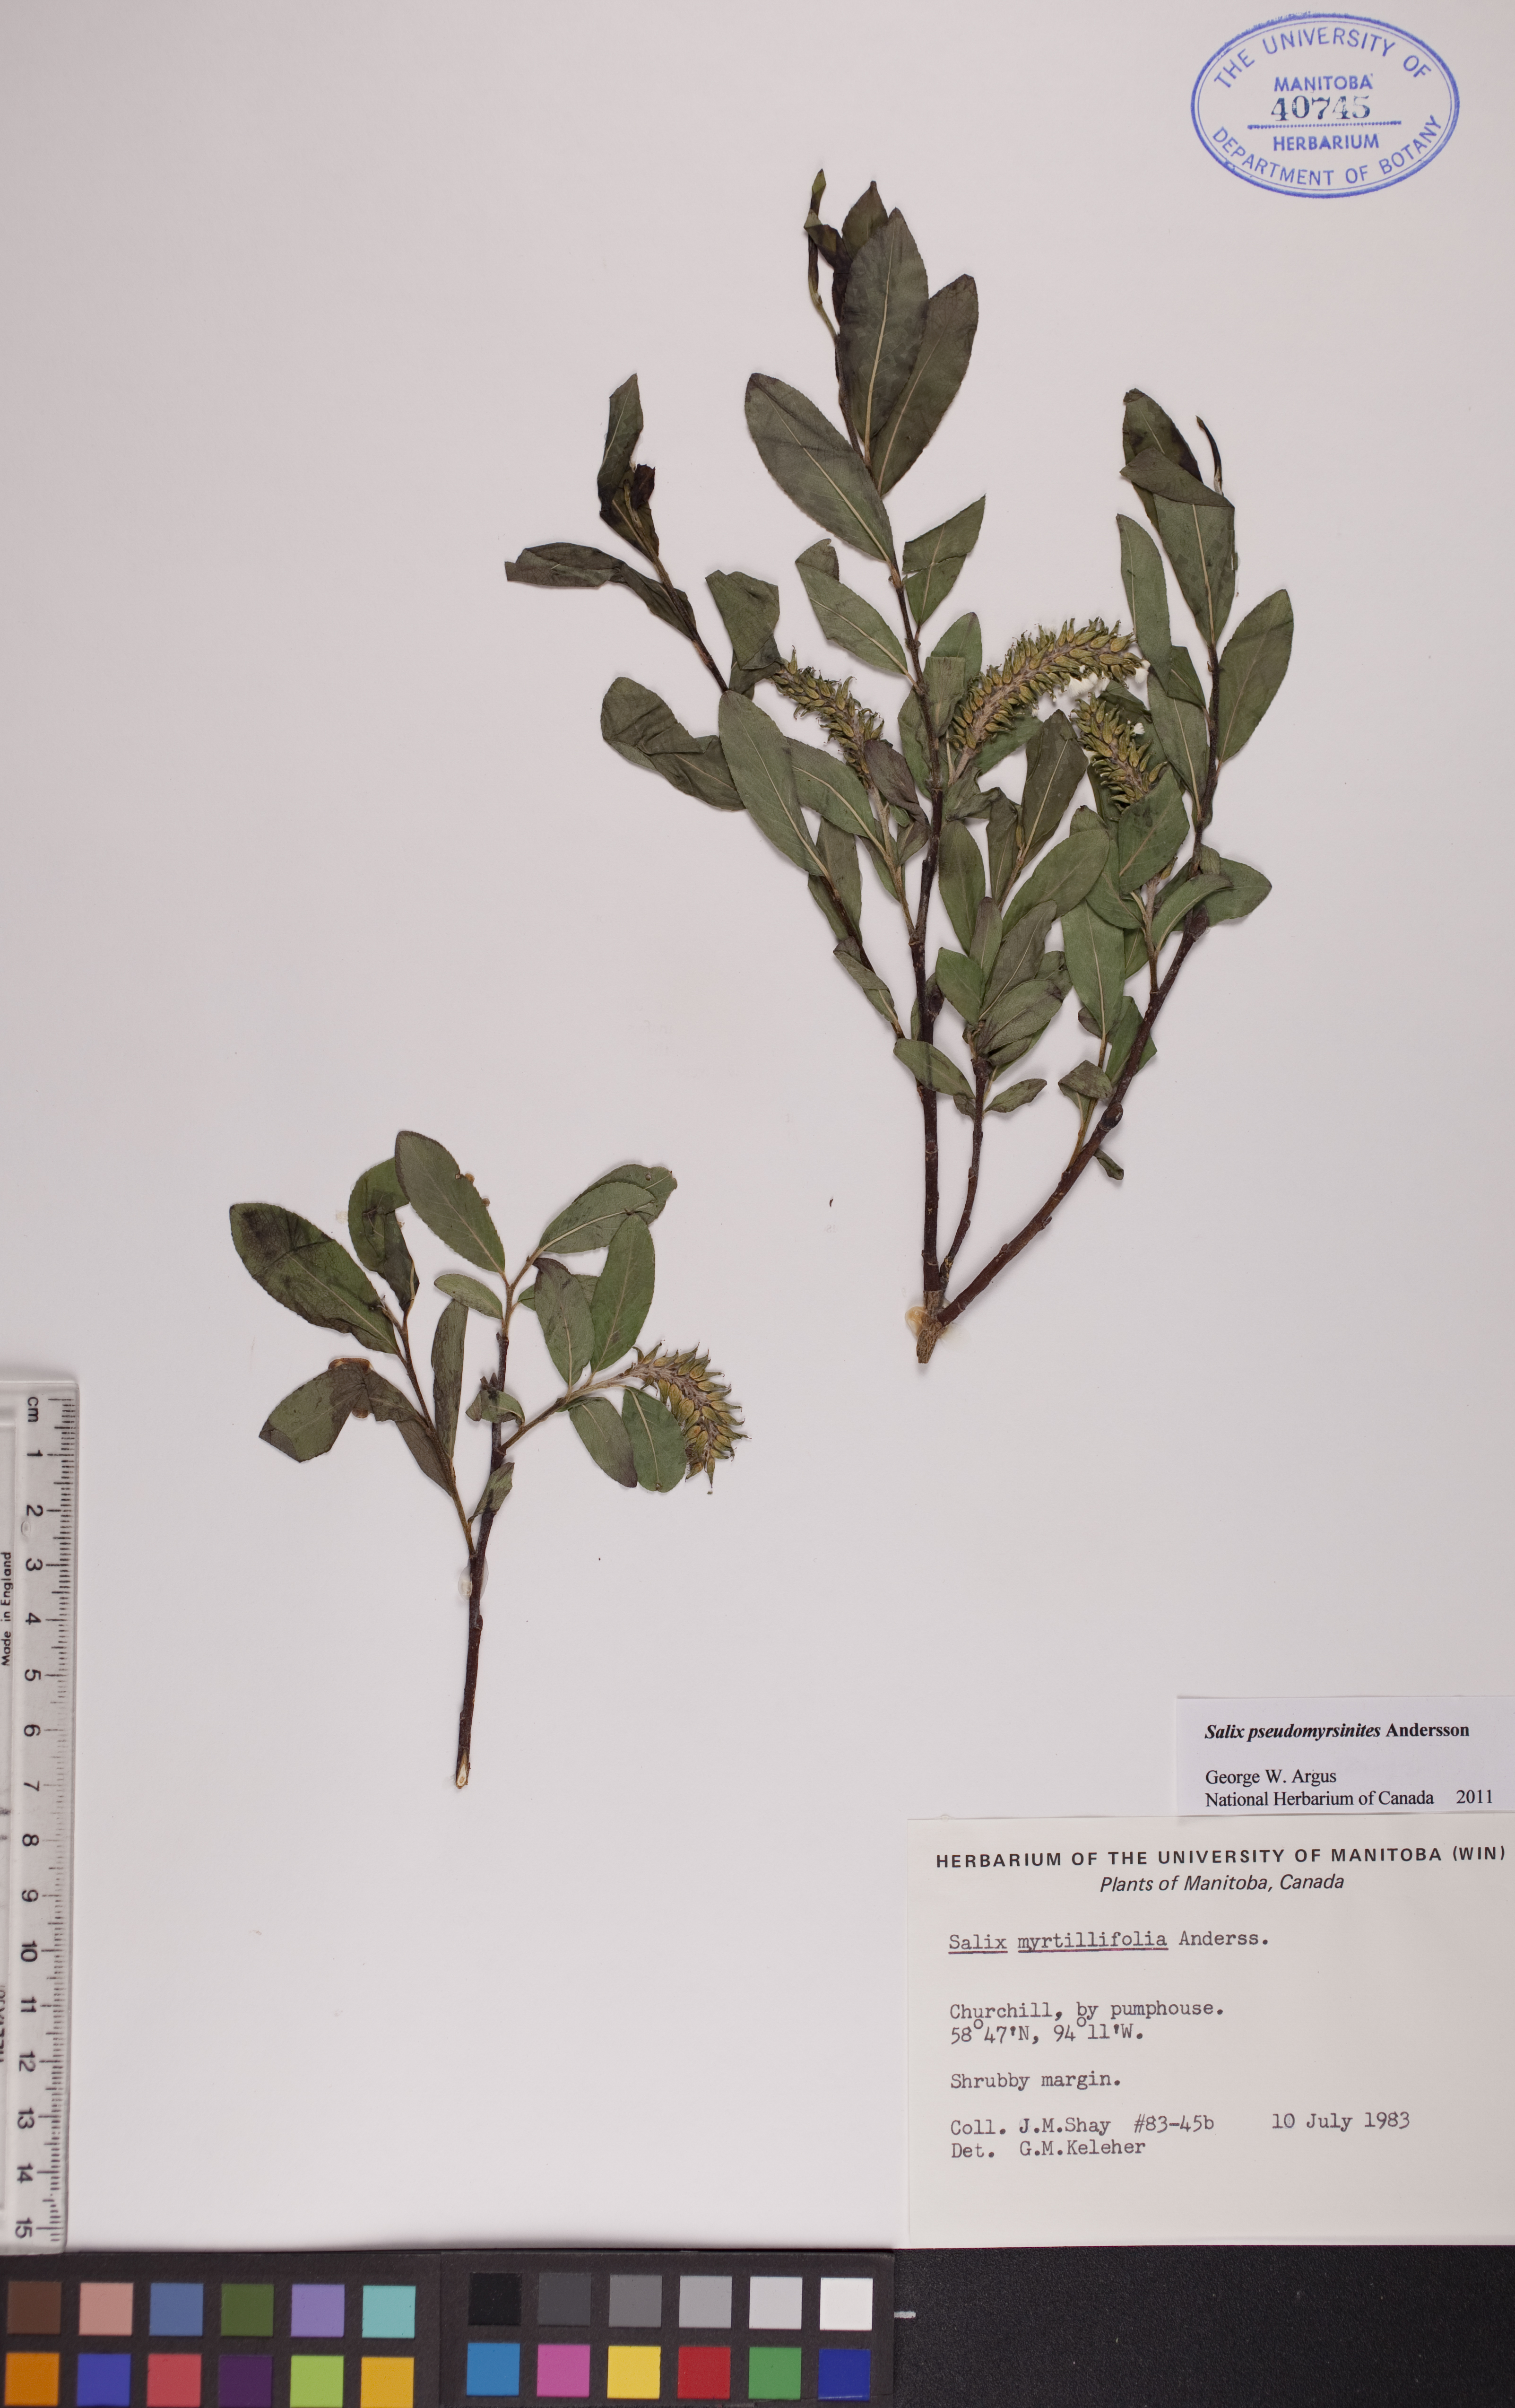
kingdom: Plantae
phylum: Tracheophyta
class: Magnoliopsida
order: Malpighiales
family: Salicaceae
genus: Salix
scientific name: Salix pseudomyrsinites
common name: Tall blueberry willow
